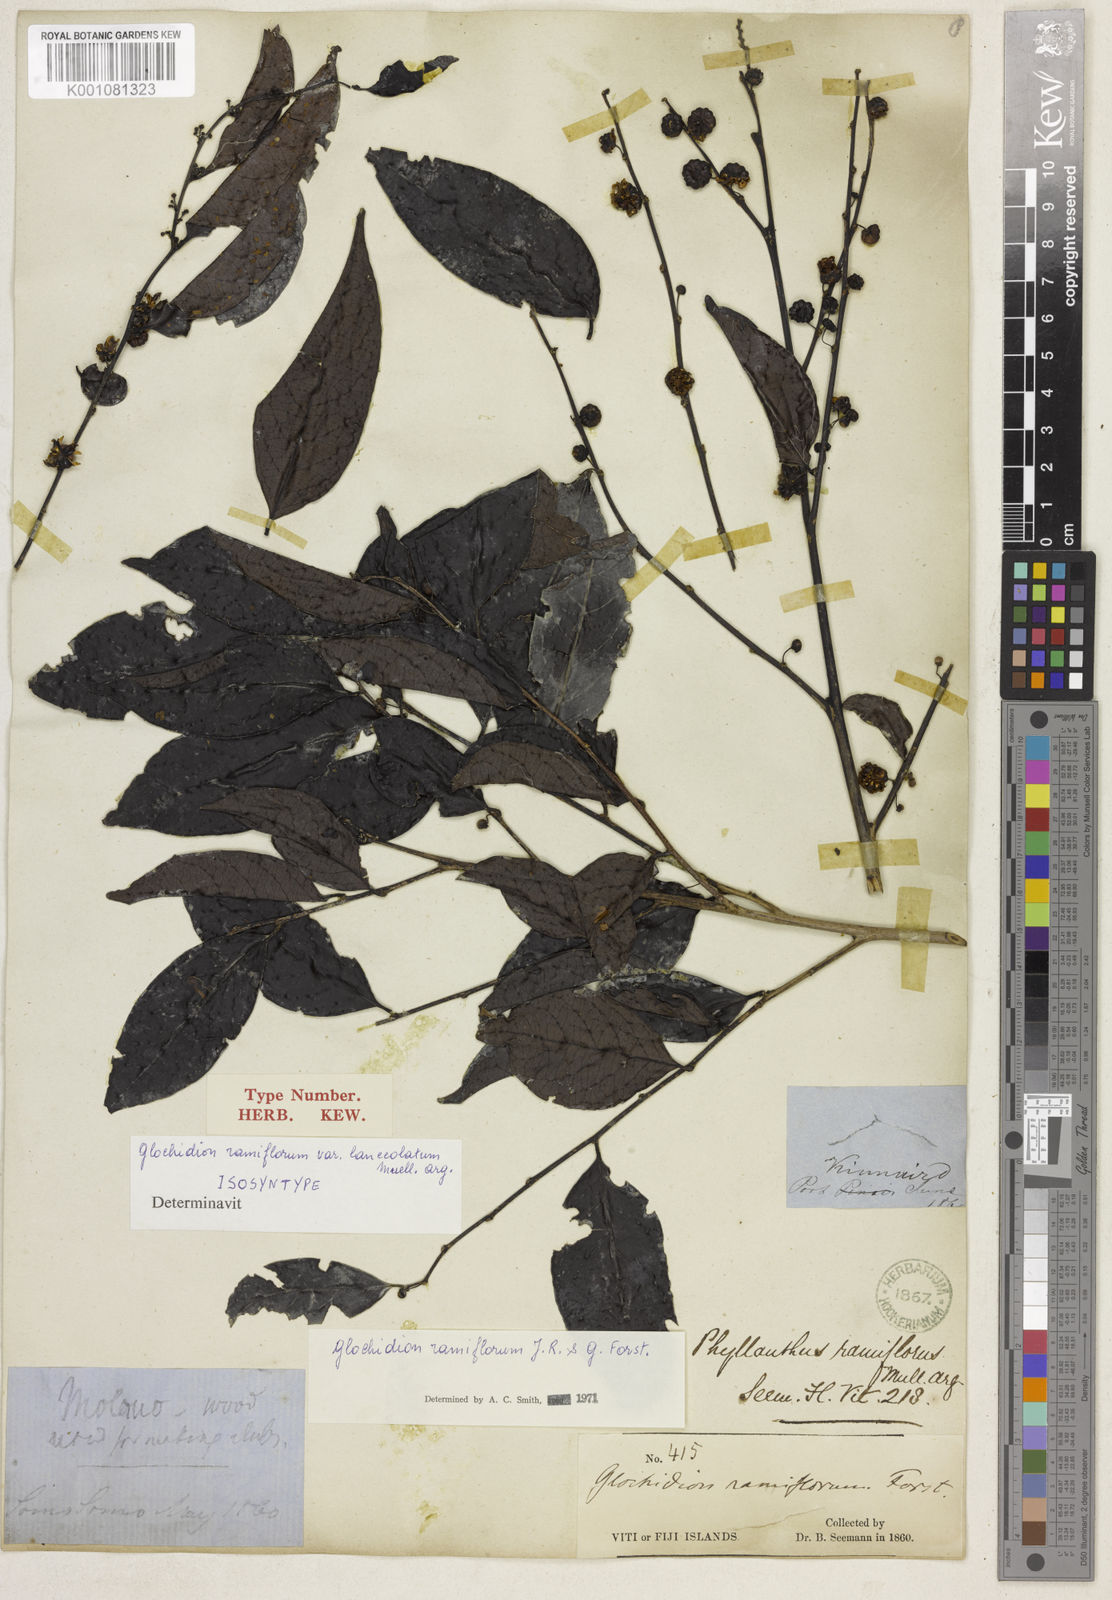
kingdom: Plantae
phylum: Tracheophyta
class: Magnoliopsida
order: Malpighiales
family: Phyllanthaceae
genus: Glochidion
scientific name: Glochidion
